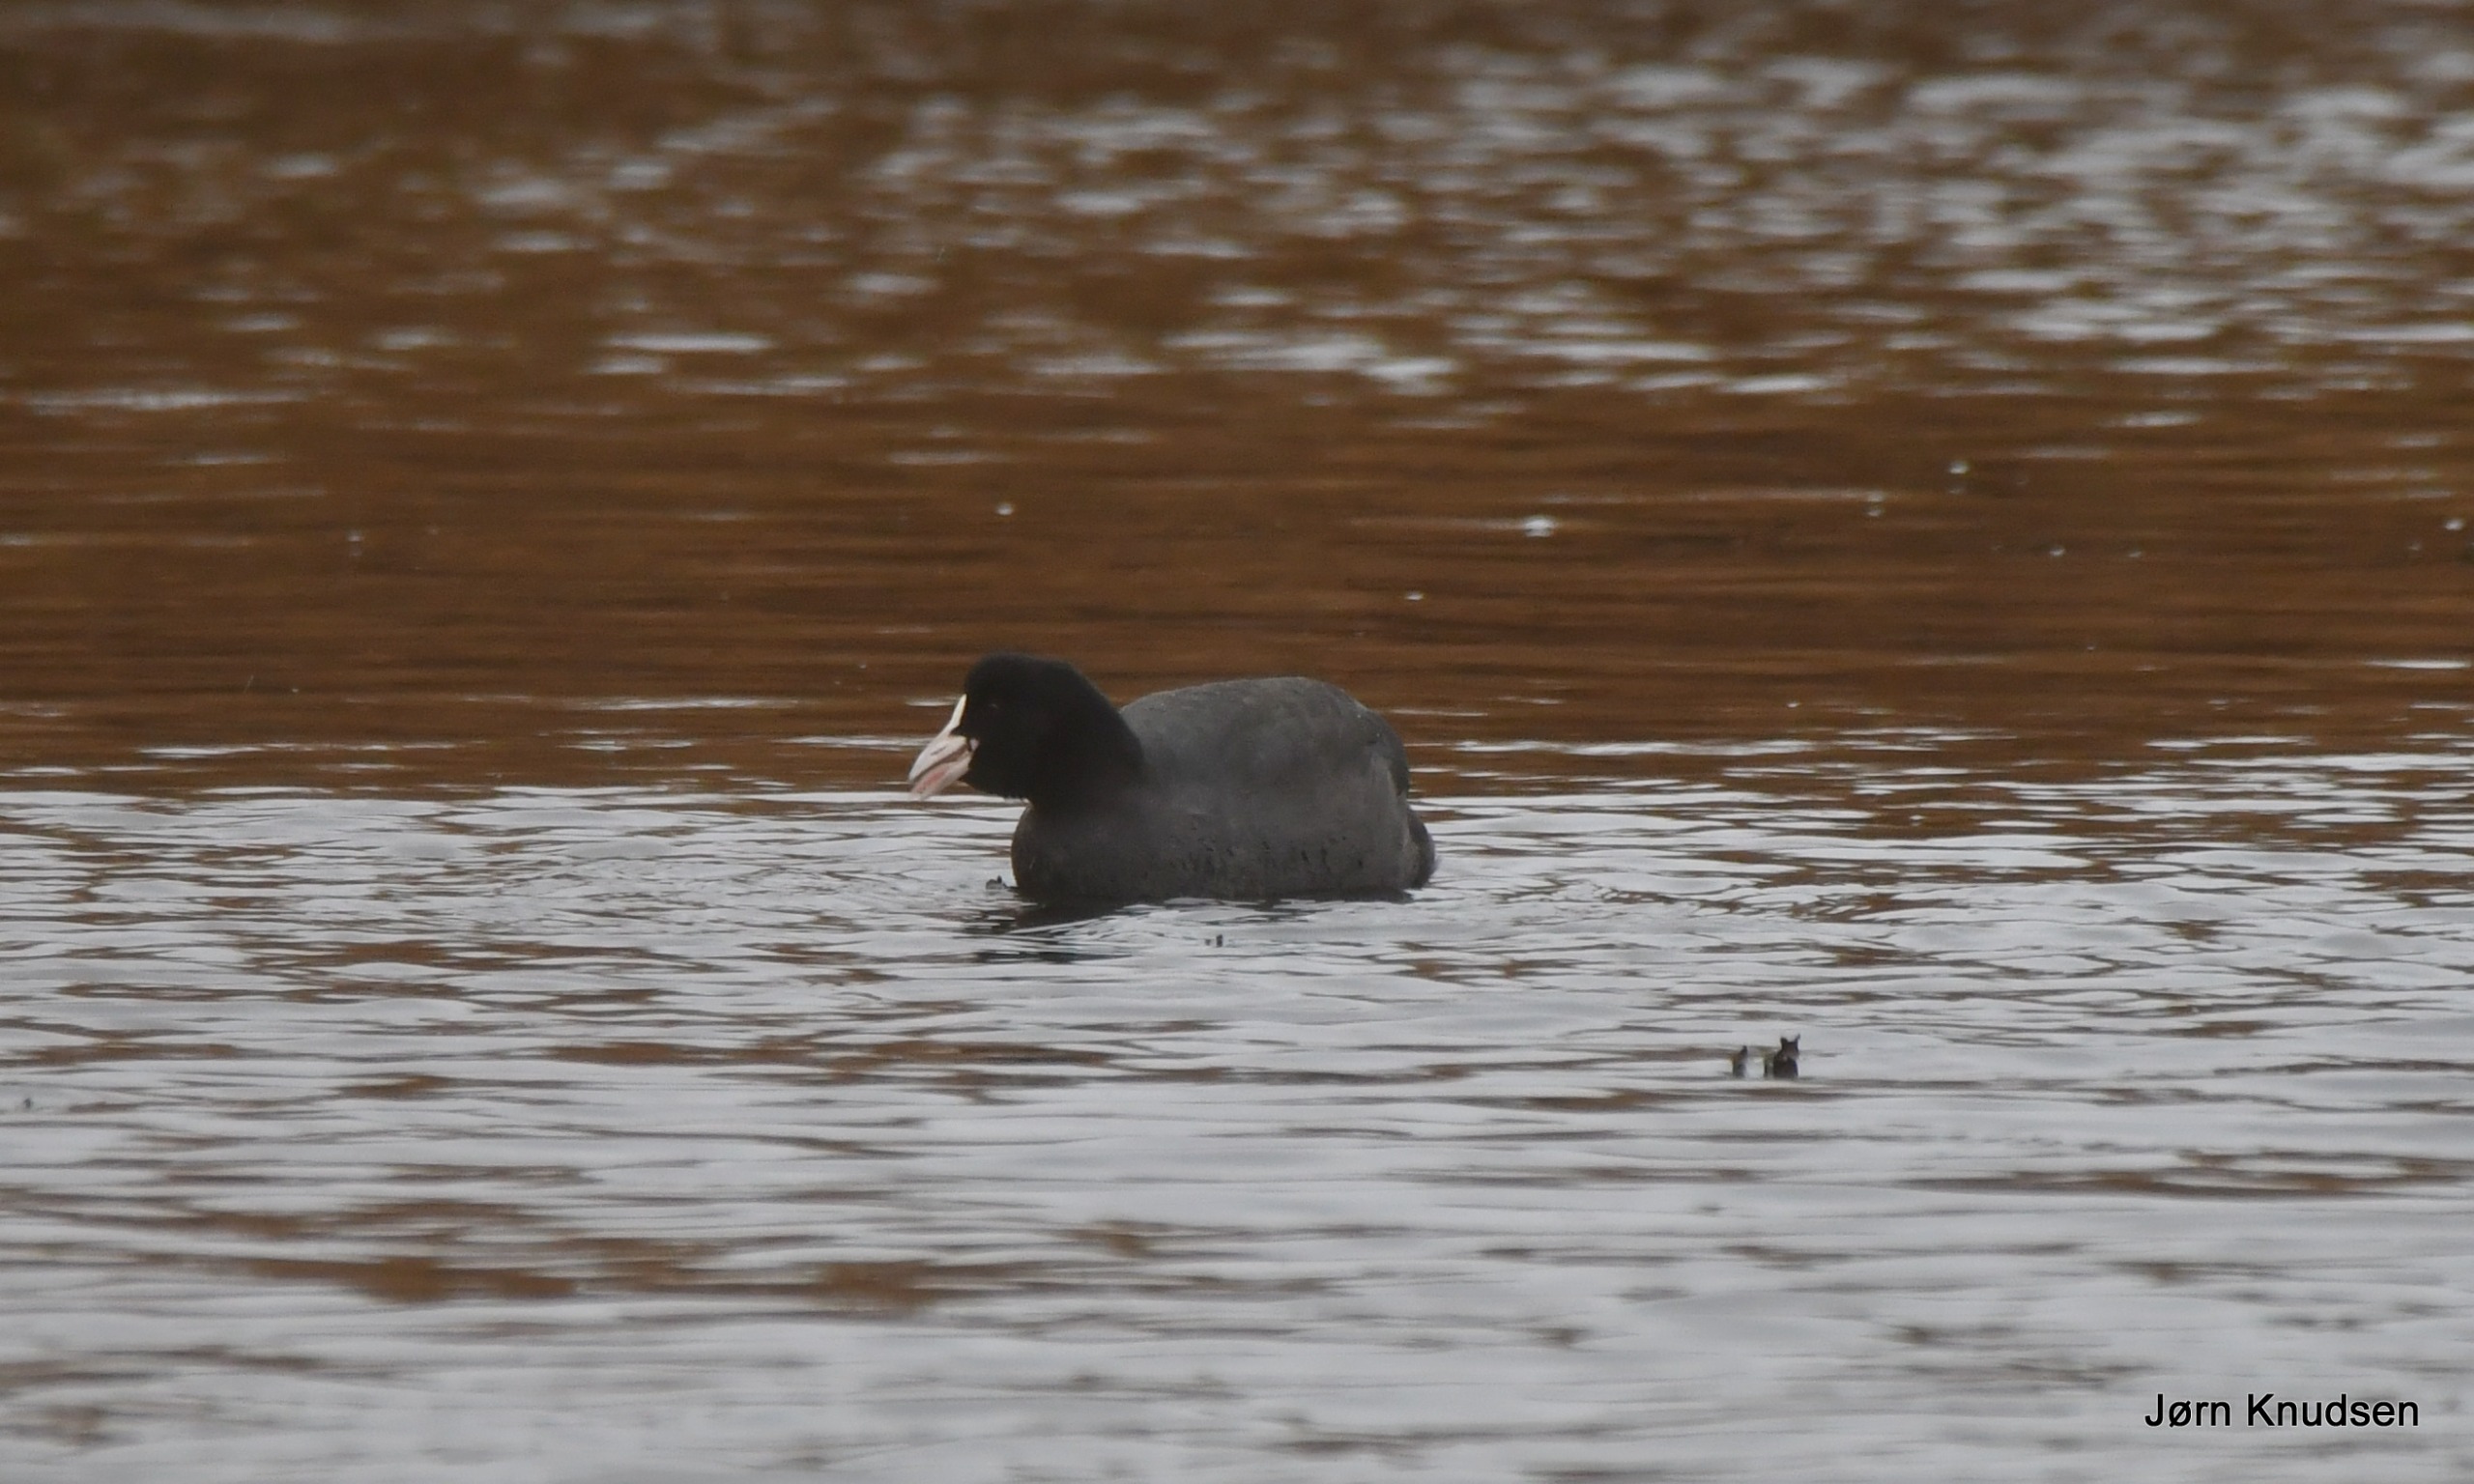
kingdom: Animalia
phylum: Chordata
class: Aves
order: Gruiformes
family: Rallidae
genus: Fulica
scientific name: Fulica atra
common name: Blishøne
